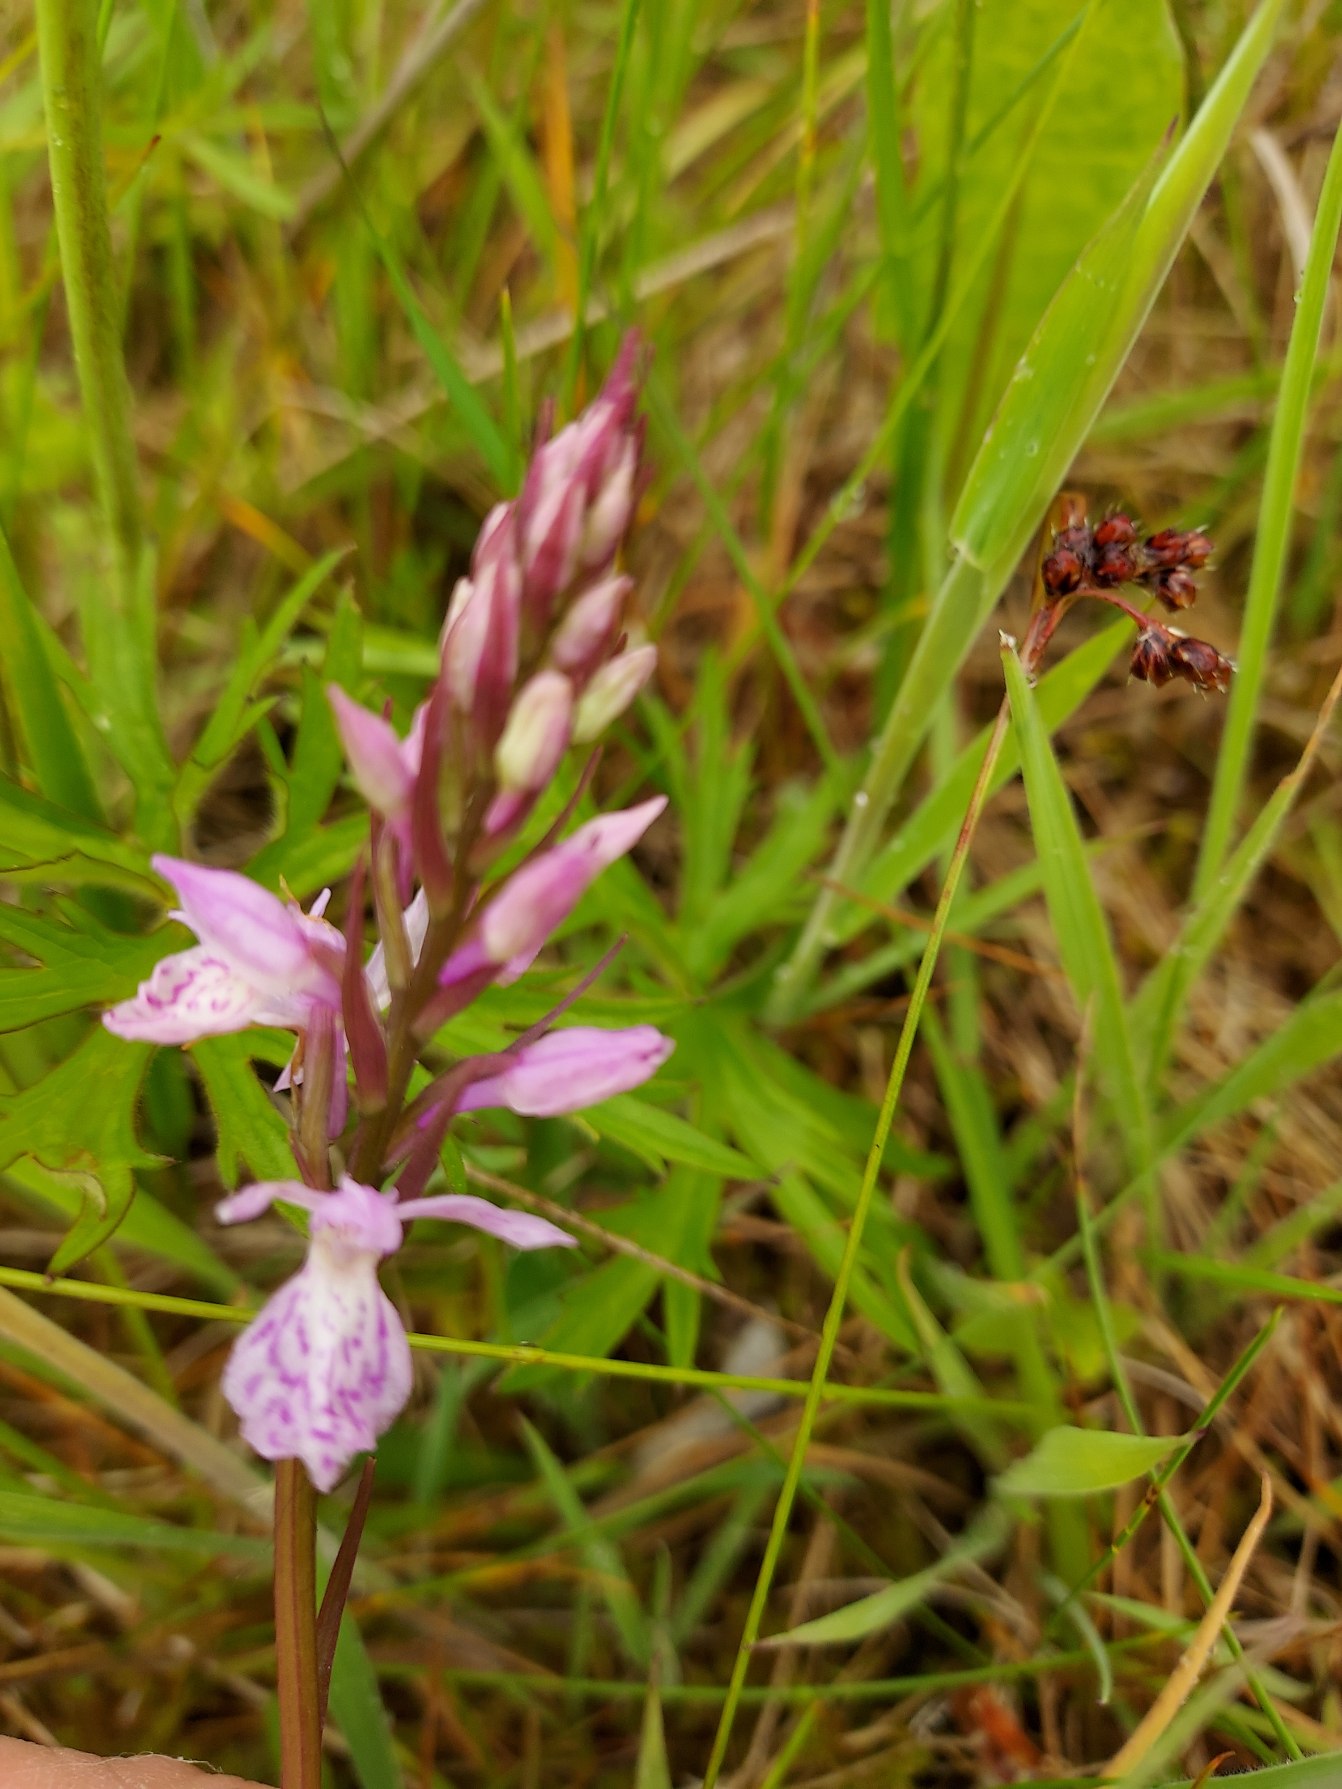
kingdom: Plantae
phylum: Tracheophyta
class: Liliopsida
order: Asparagales
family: Orchidaceae
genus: Dactylorhiza
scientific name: Dactylorhiza maculata
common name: Plettet gøgeurt
